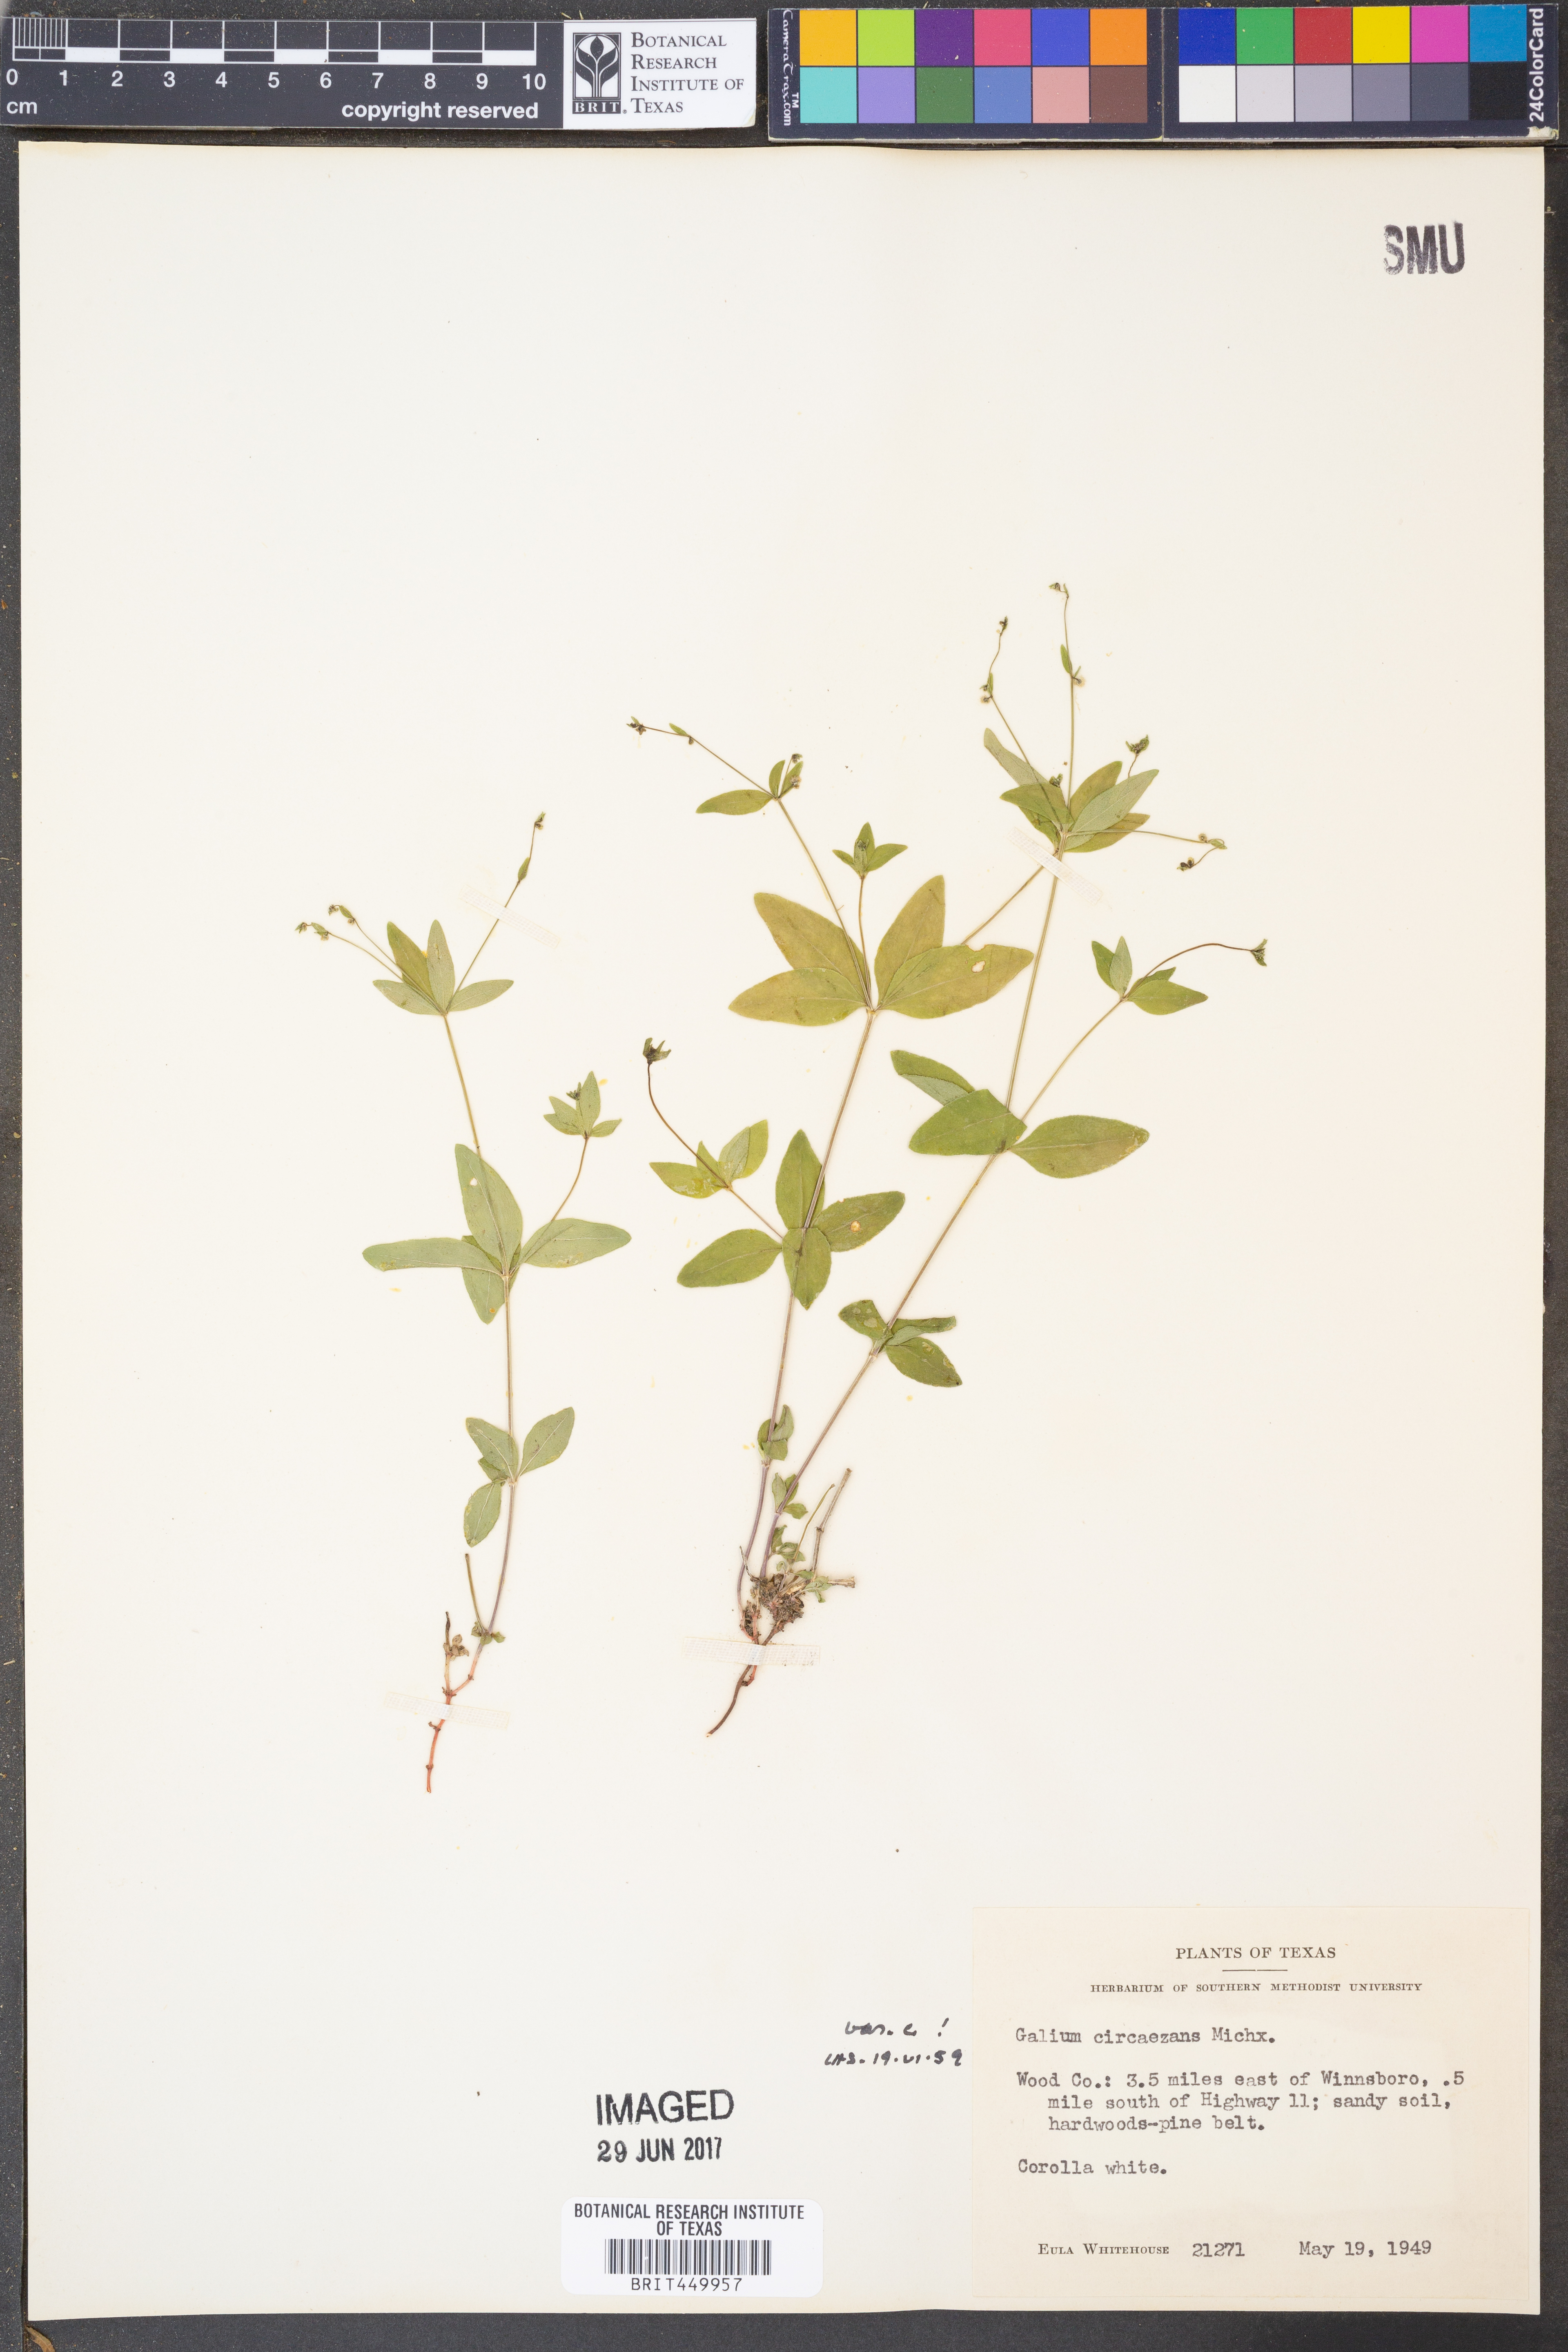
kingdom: Plantae
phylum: Tracheophyta
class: Magnoliopsida
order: Gentianales
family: Rubiaceae
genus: Galium
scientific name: Galium circaezans
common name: Forest bedstraw
